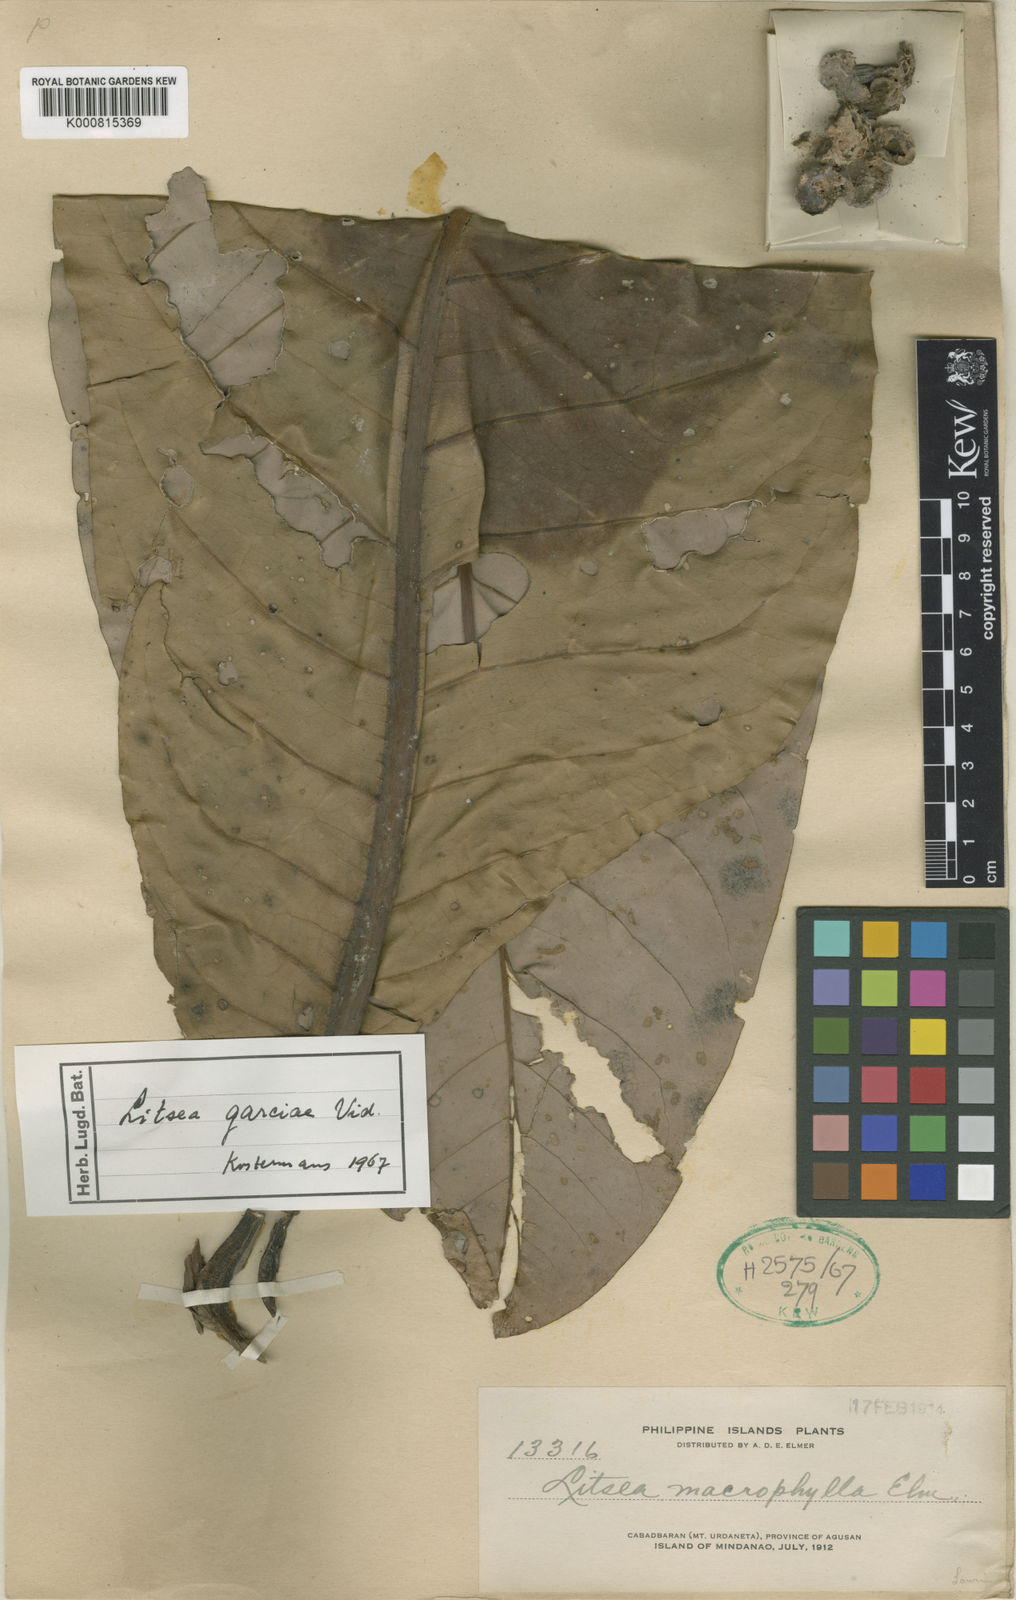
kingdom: Plantae
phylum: Tracheophyta
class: Magnoliopsida
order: Laurales
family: Lauraceae
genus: Litsea
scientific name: Litsea garciae
